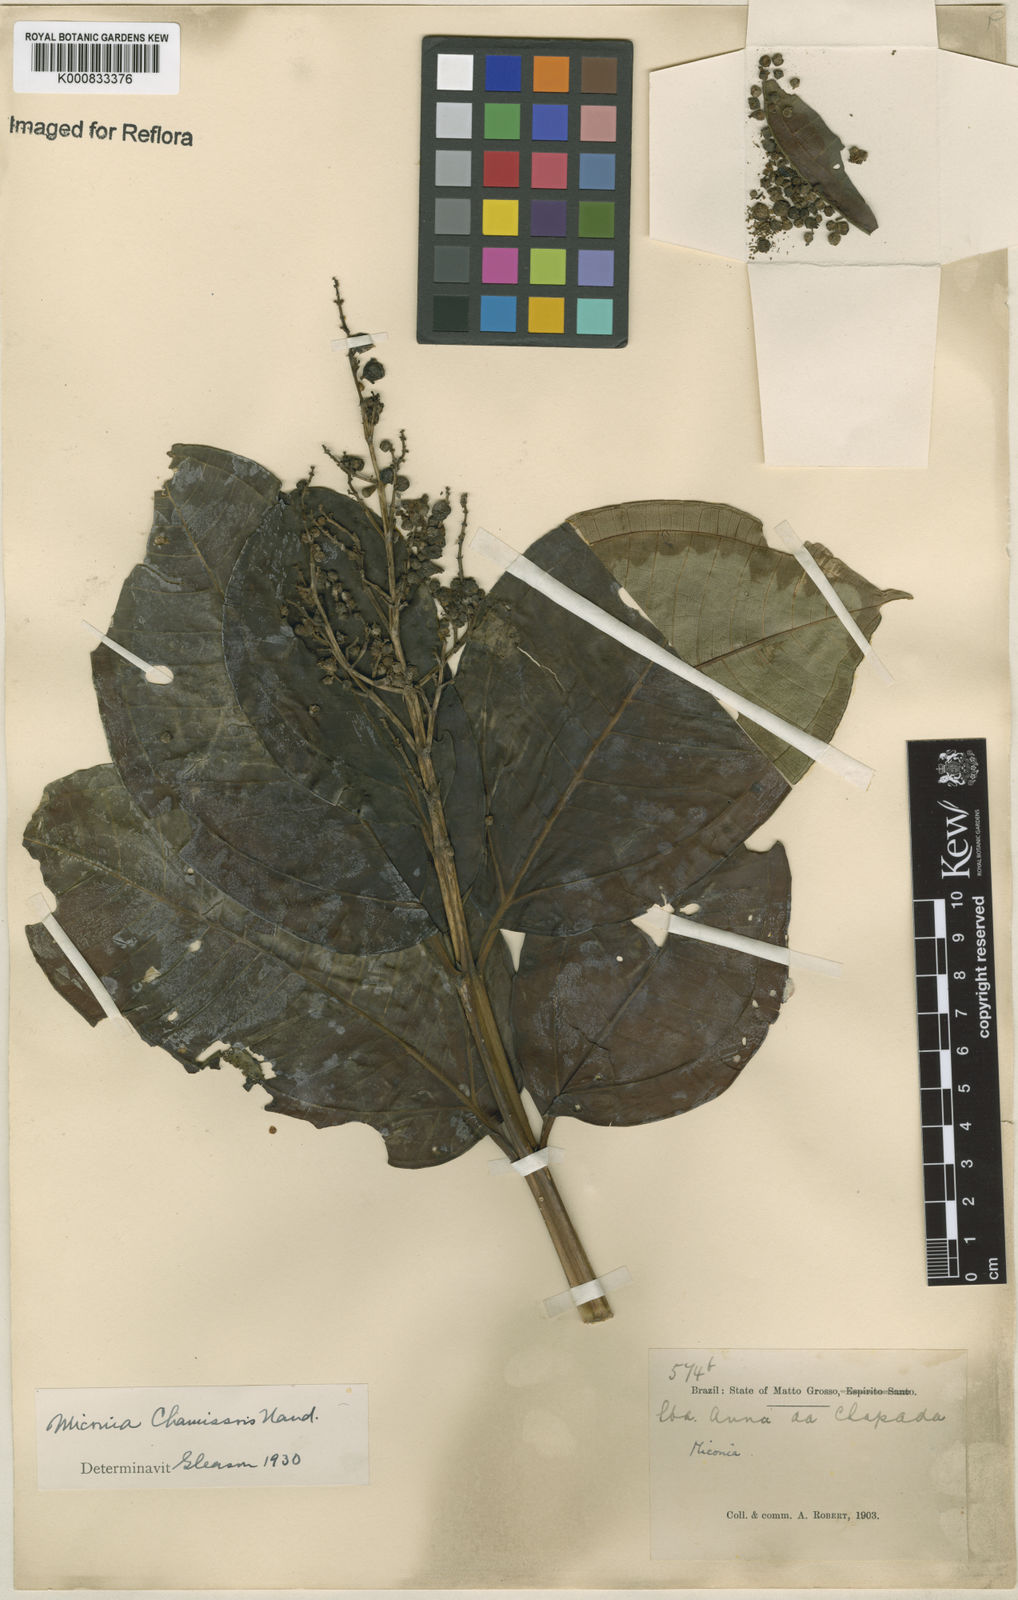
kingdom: Plantae
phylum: Tracheophyta
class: Magnoliopsida
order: Myrtales
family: Melastomataceae
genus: Miconia
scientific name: Miconia chamissois
